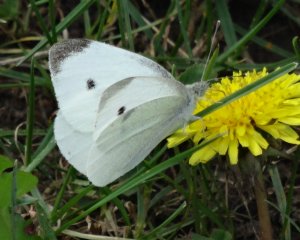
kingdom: Animalia
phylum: Arthropoda
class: Insecta
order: Lepidoptera
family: Pieridae
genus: Pieris
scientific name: Pieris rapae
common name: Cabbage White
